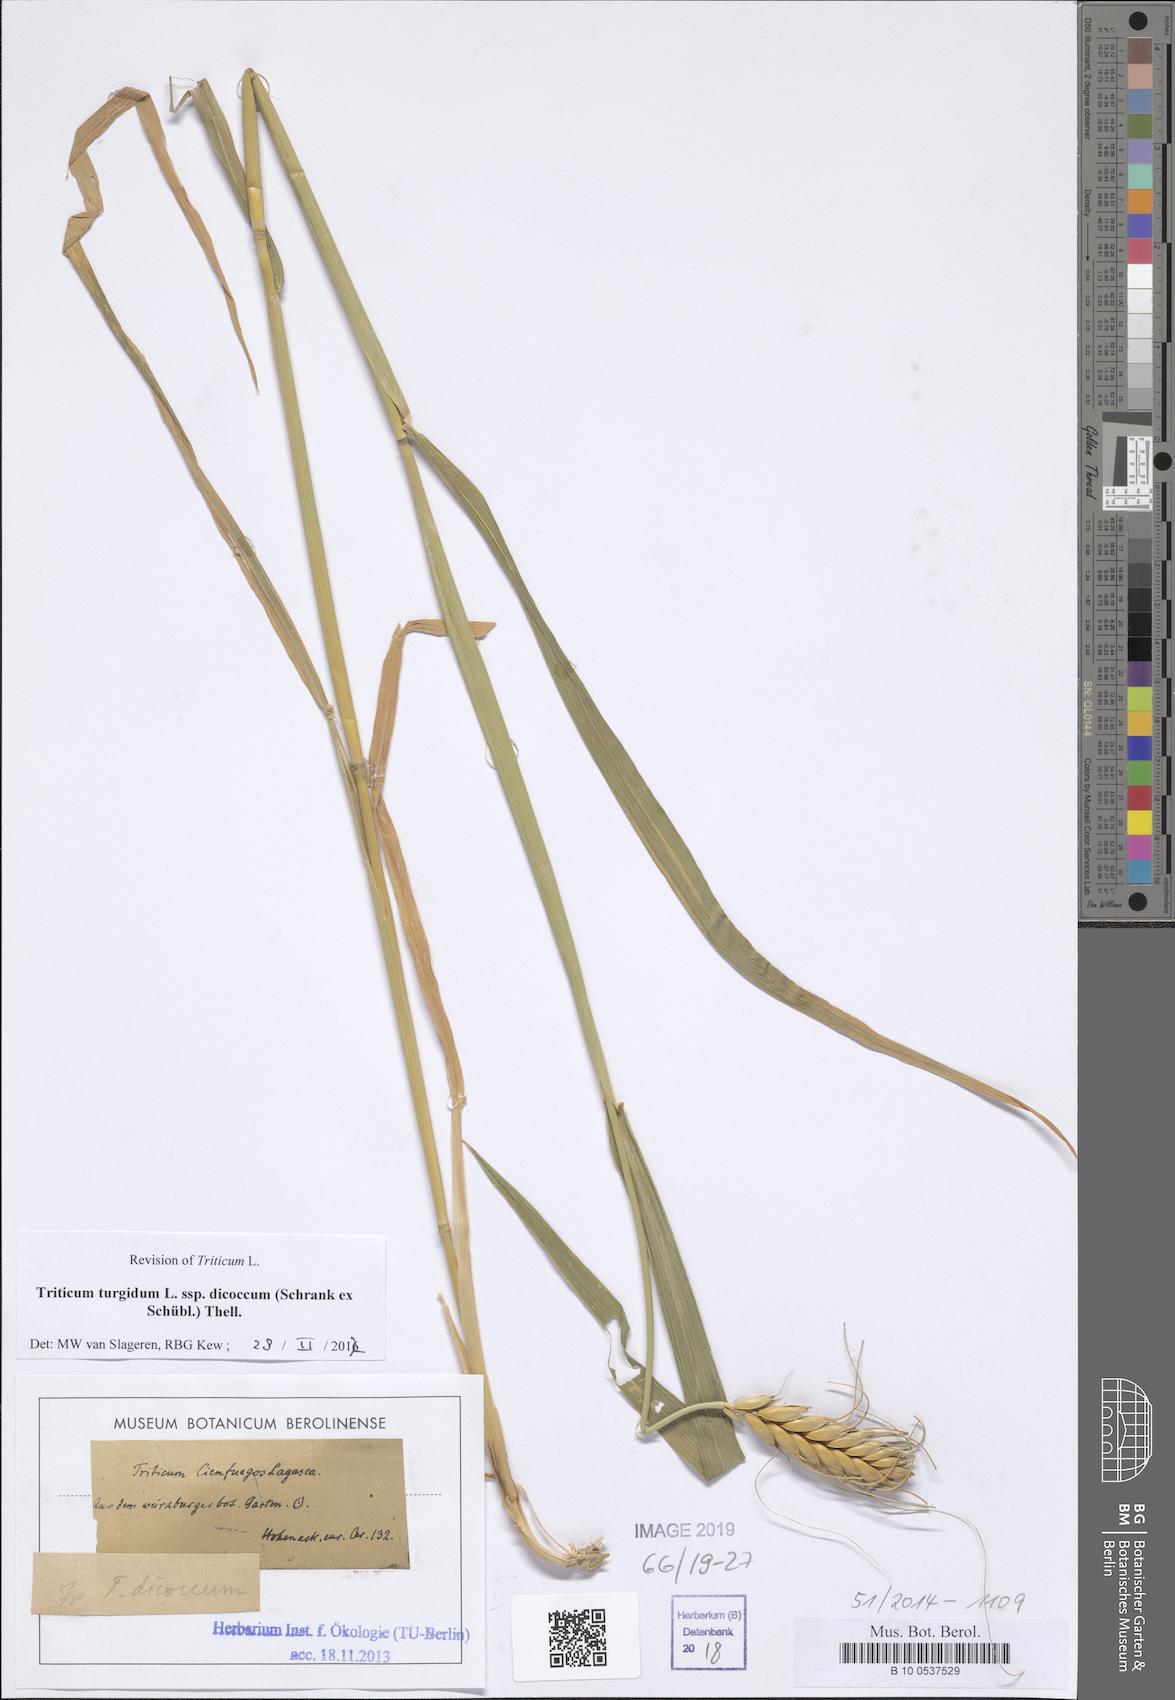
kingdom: Plantae
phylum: Tracheophyta
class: Liliopsida
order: Poales
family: Poaceae
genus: Triticum
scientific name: Triticum turgidum
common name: Rivet wheat
